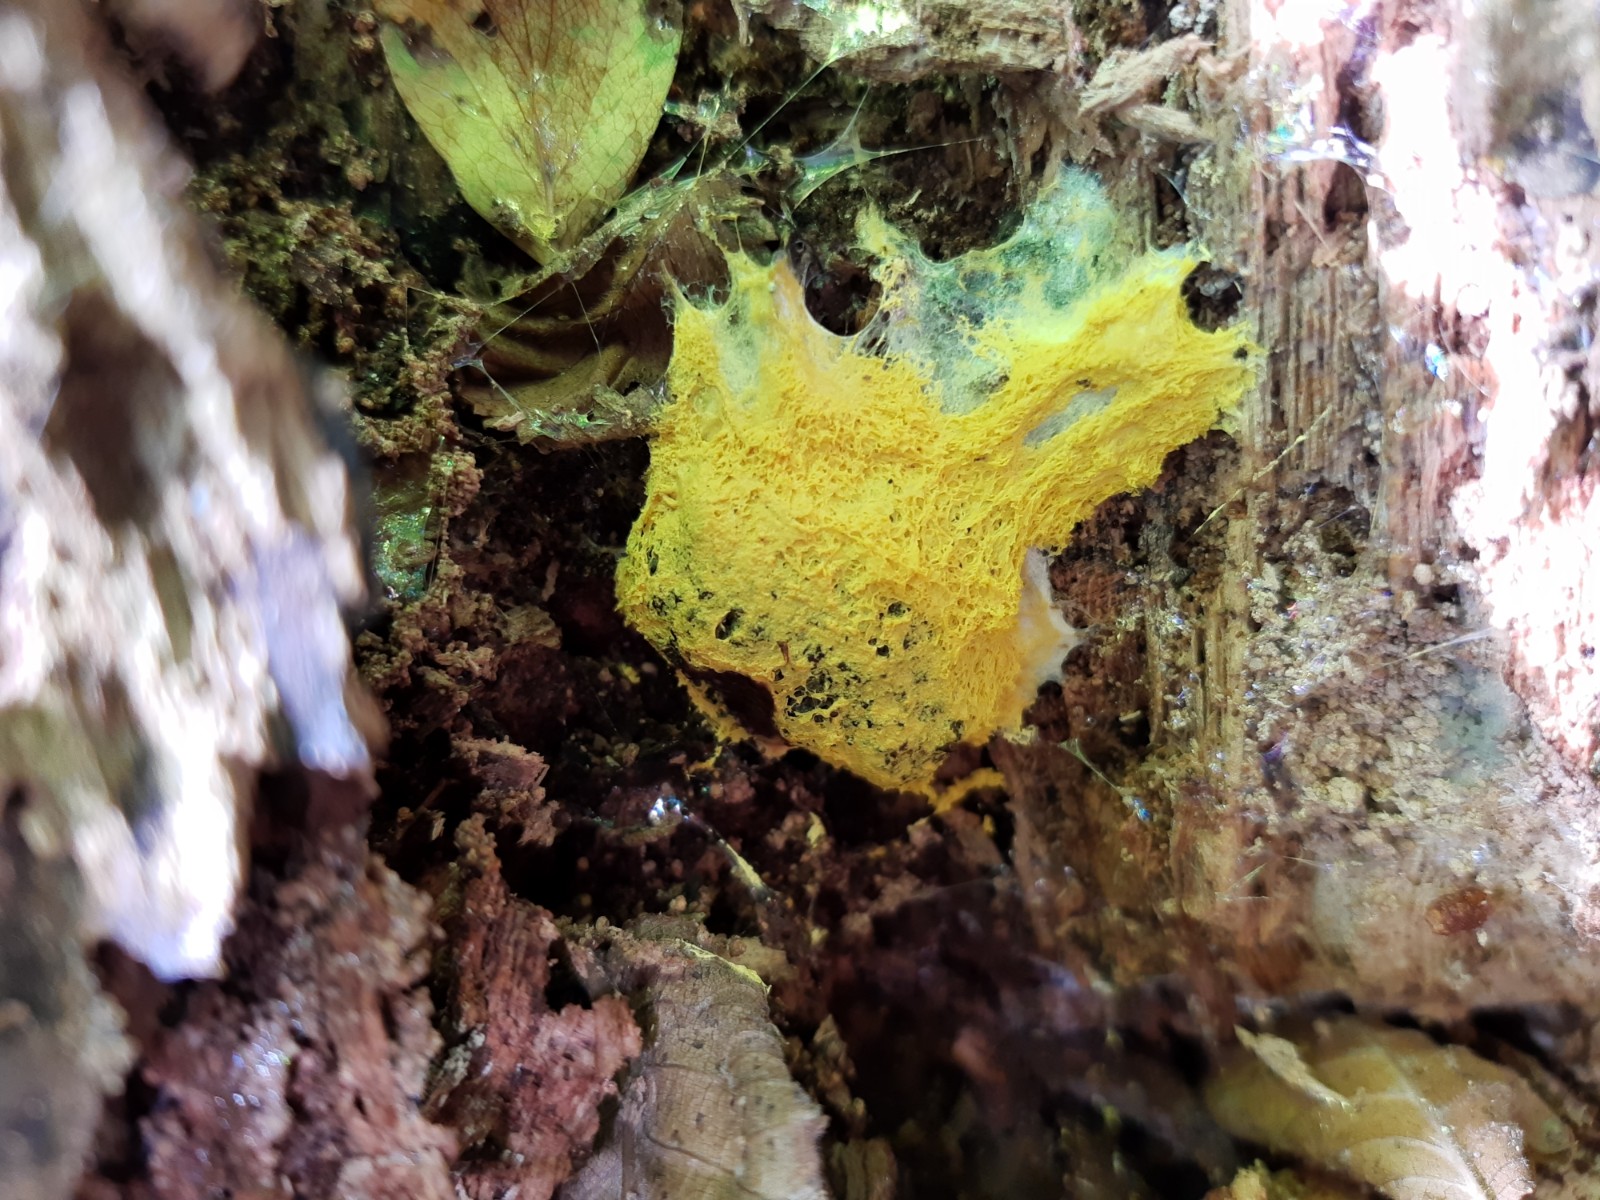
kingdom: Protozoa
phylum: Mycetozoa
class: Myxomycetes
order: Physarales
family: Physaraceae
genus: Fuligo
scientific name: Fuligo septica
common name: gul troldsmør
